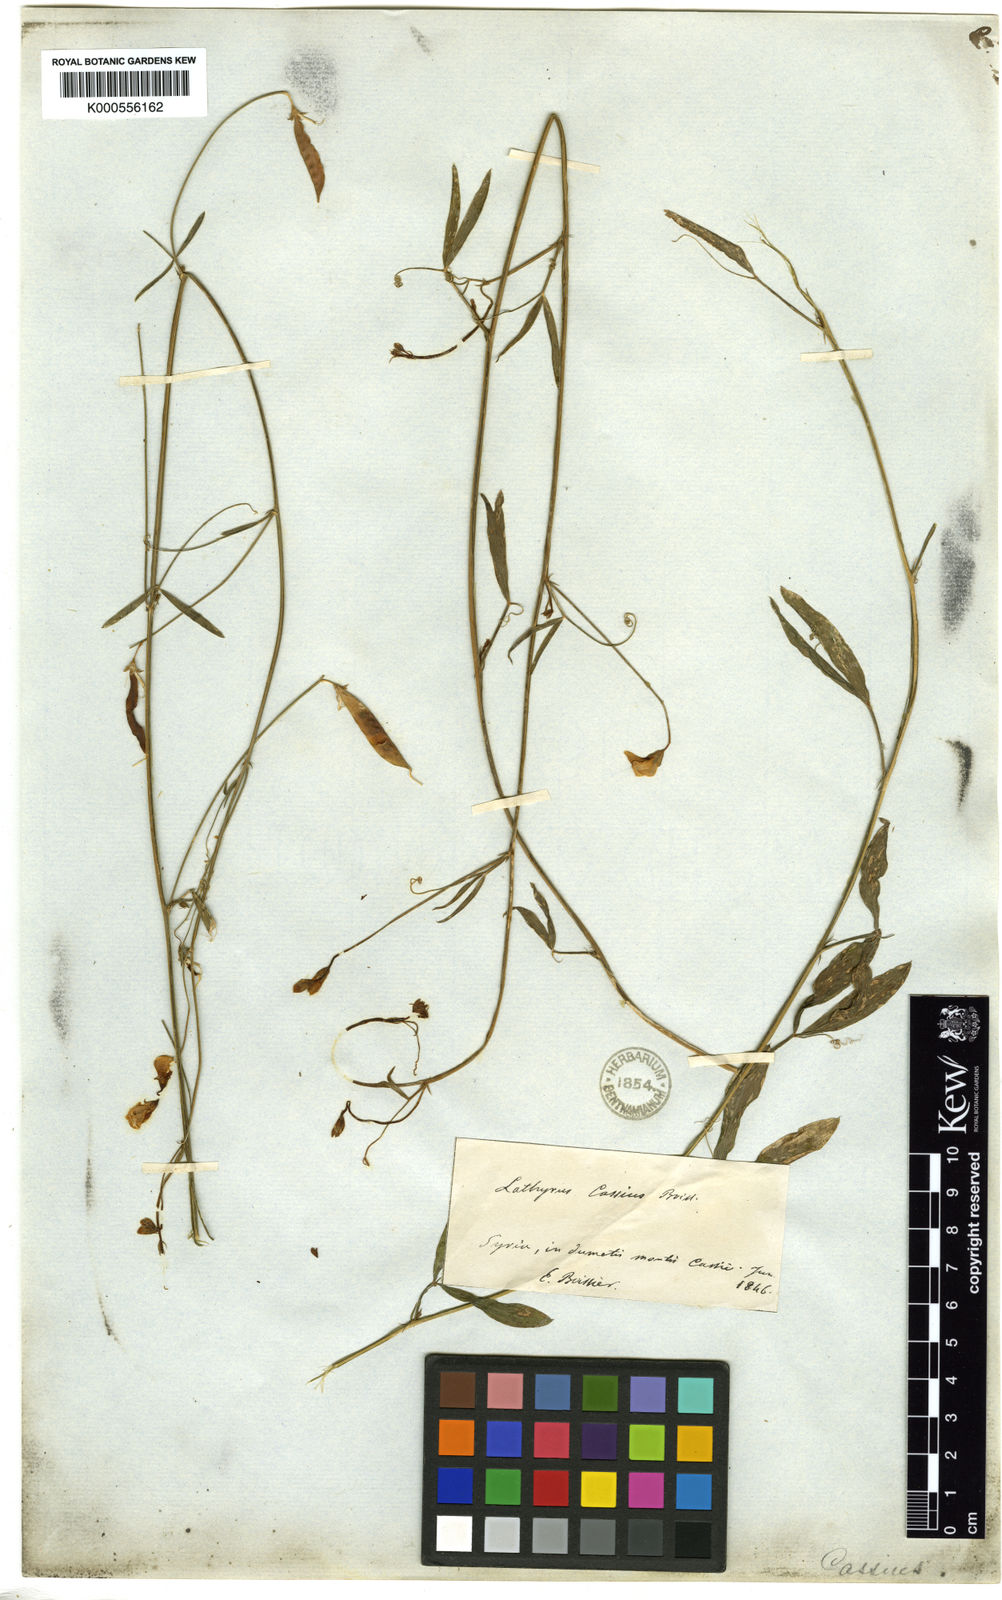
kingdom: Plantae
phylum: Tracheophyta
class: Magnoliopsida
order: Fabales
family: Fabaceae
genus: Lathyrus
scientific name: Lathyrus cassius
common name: Sweet pea
